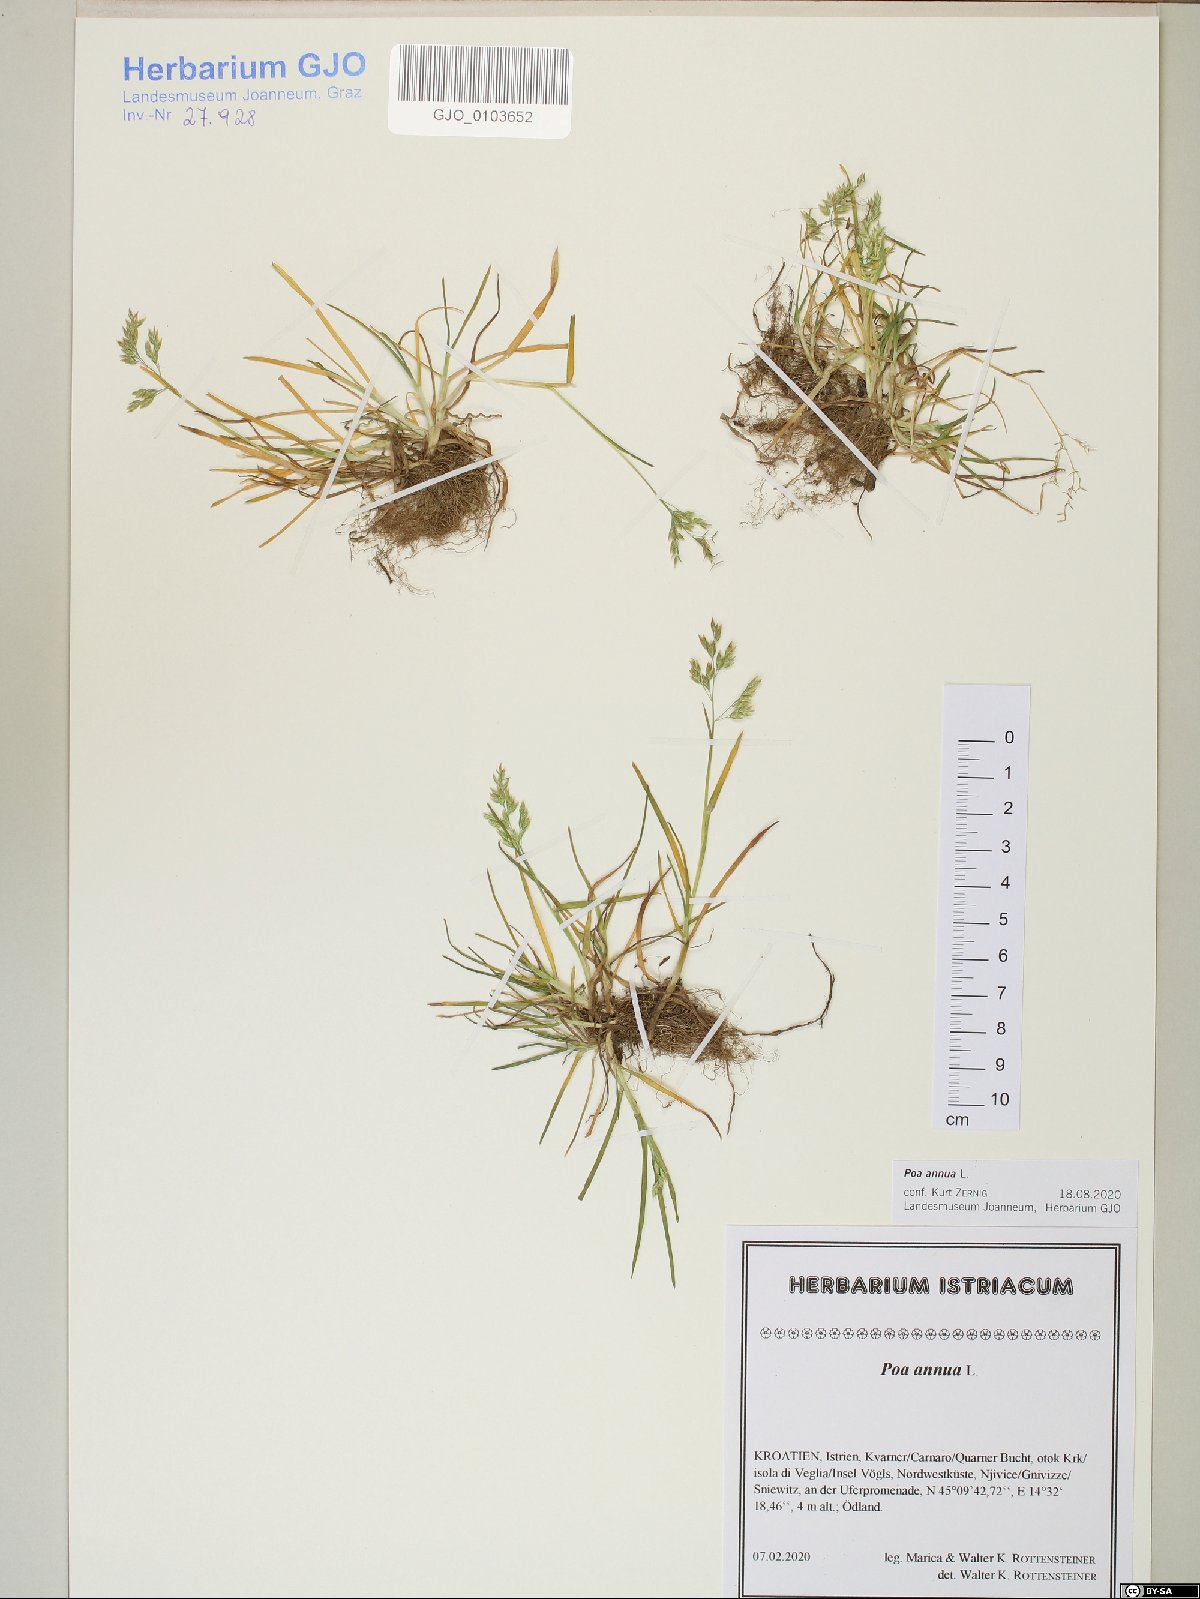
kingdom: Plantae
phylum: Tracheophyta
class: Liliopsida
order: Poales
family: Poaceae
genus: Poa
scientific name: Poa annua
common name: Annual bluegrass
